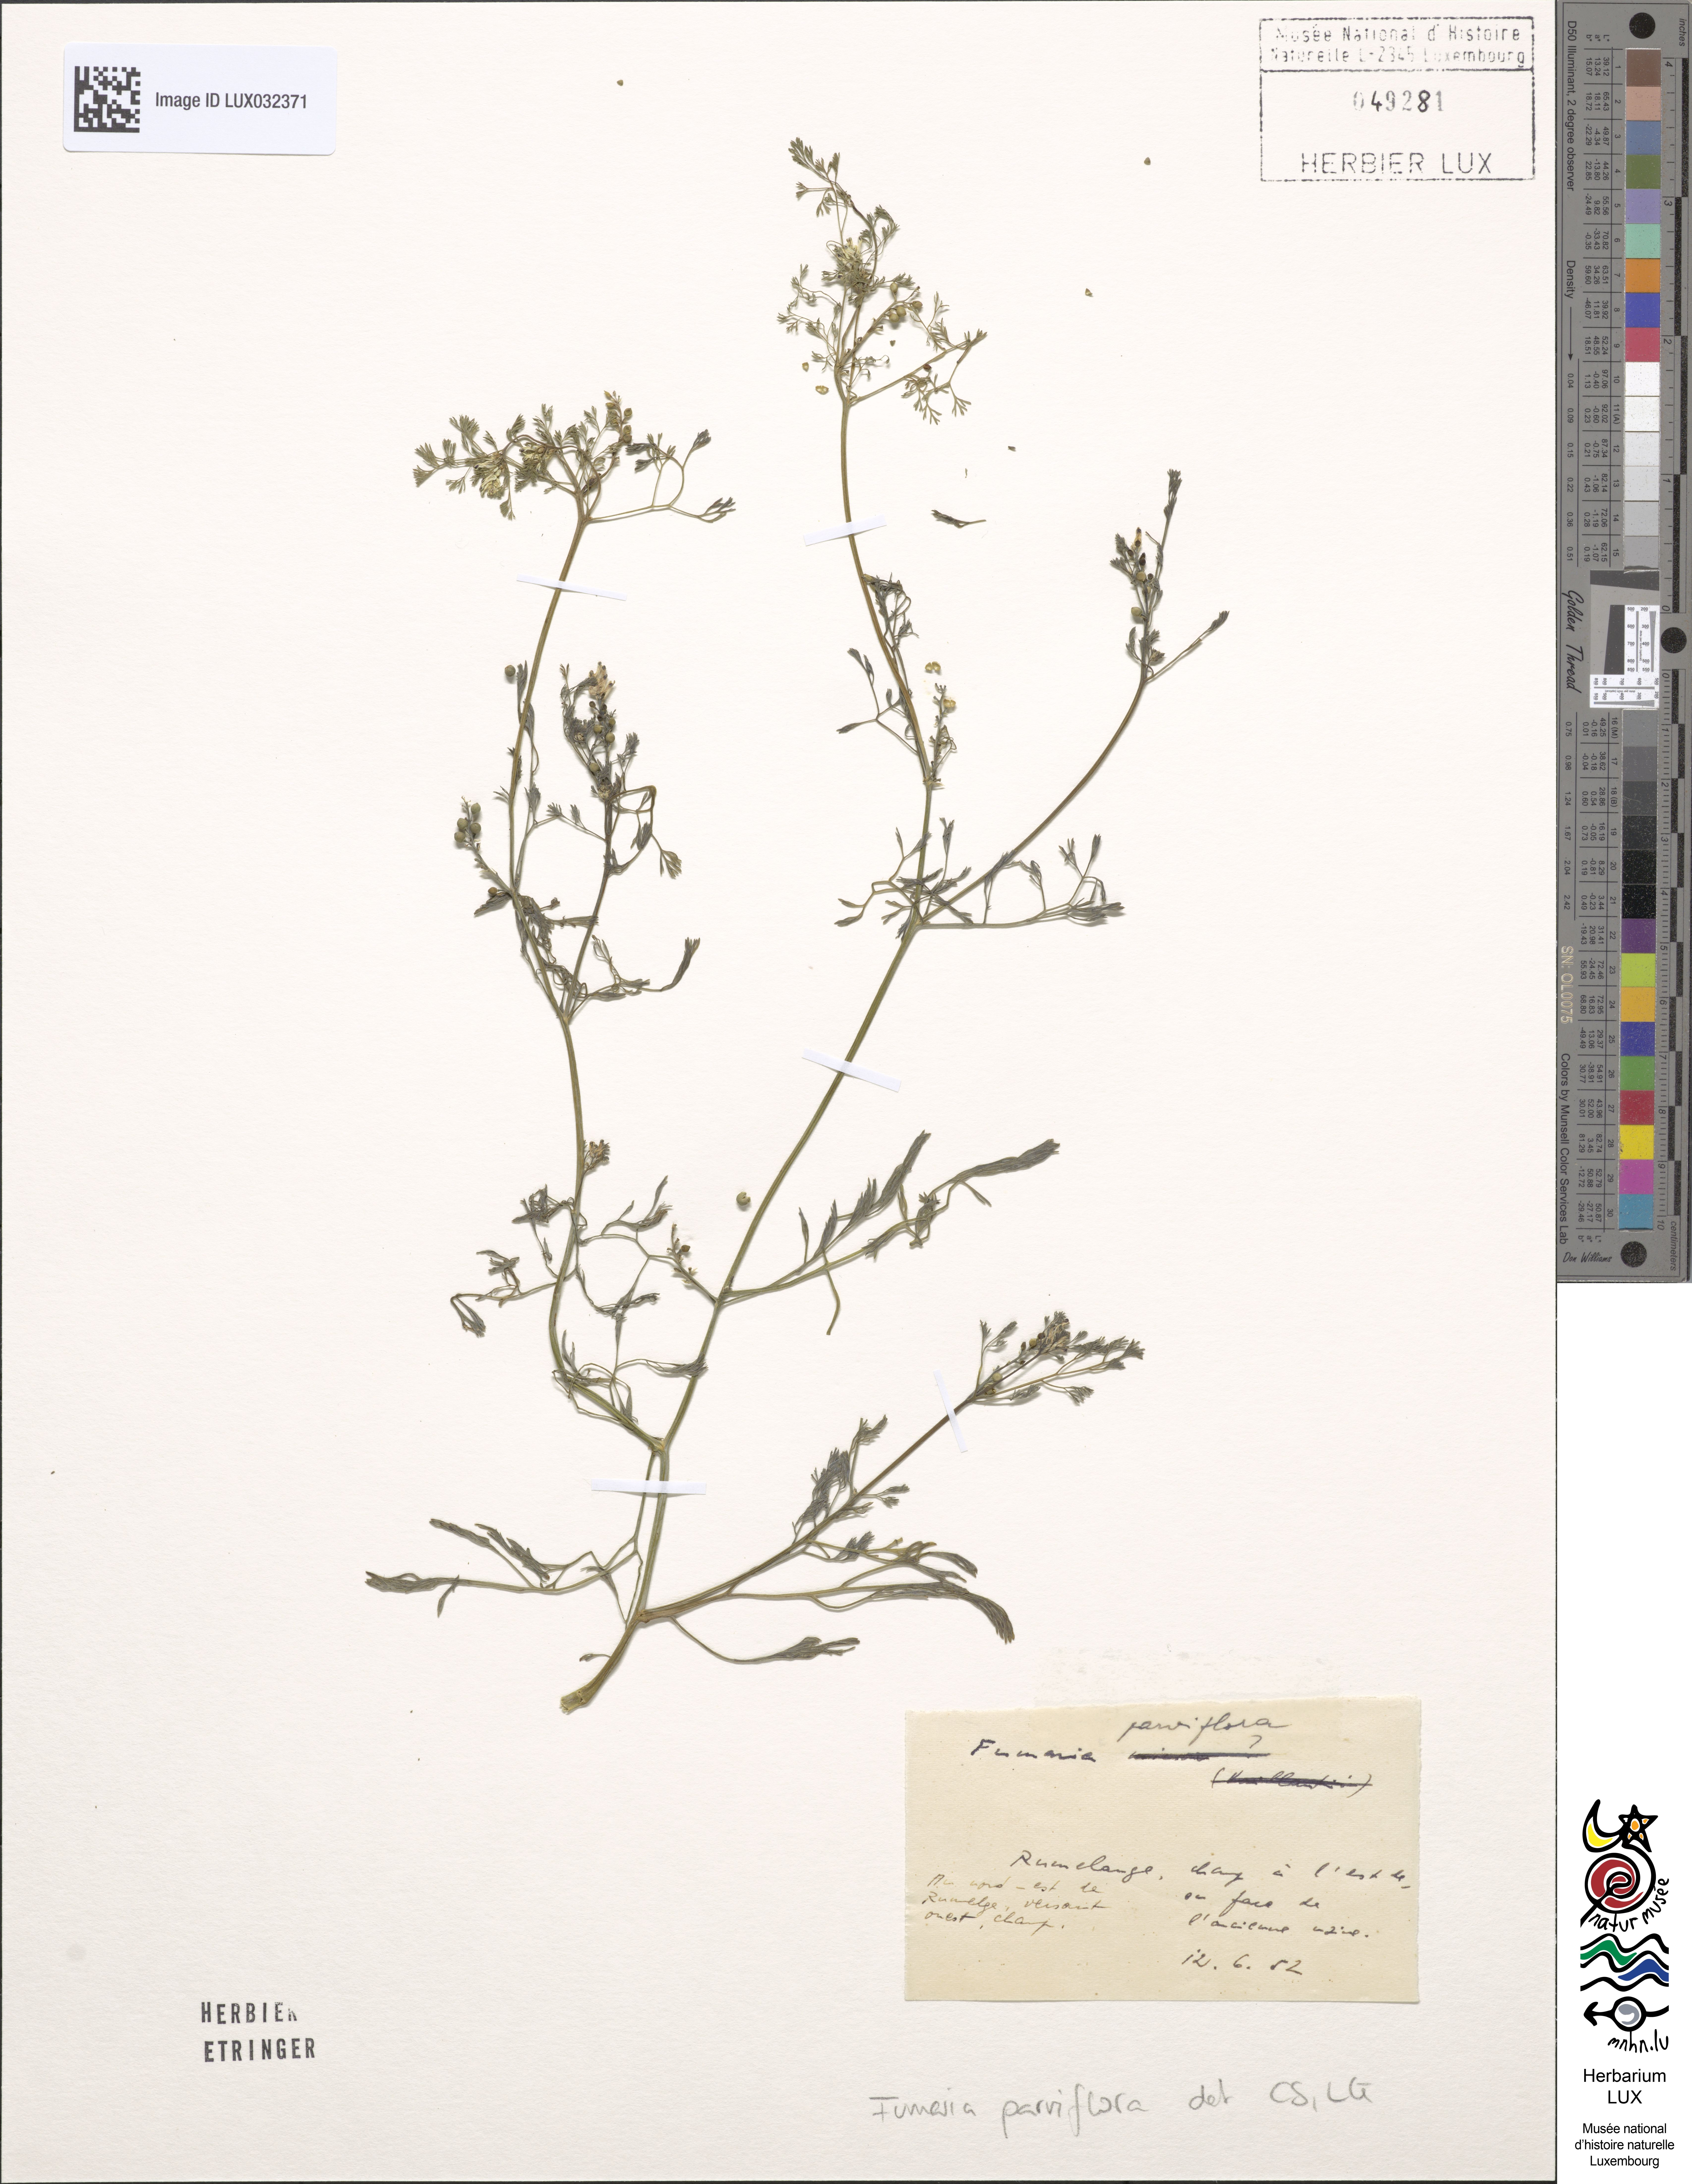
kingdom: Plantae
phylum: Tracheophyta
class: Magnoliopsida
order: Ranunculales
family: Papaveraceae
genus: Fumaria
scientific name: Fumaria parviflora
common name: Fine-leaved fumitory
